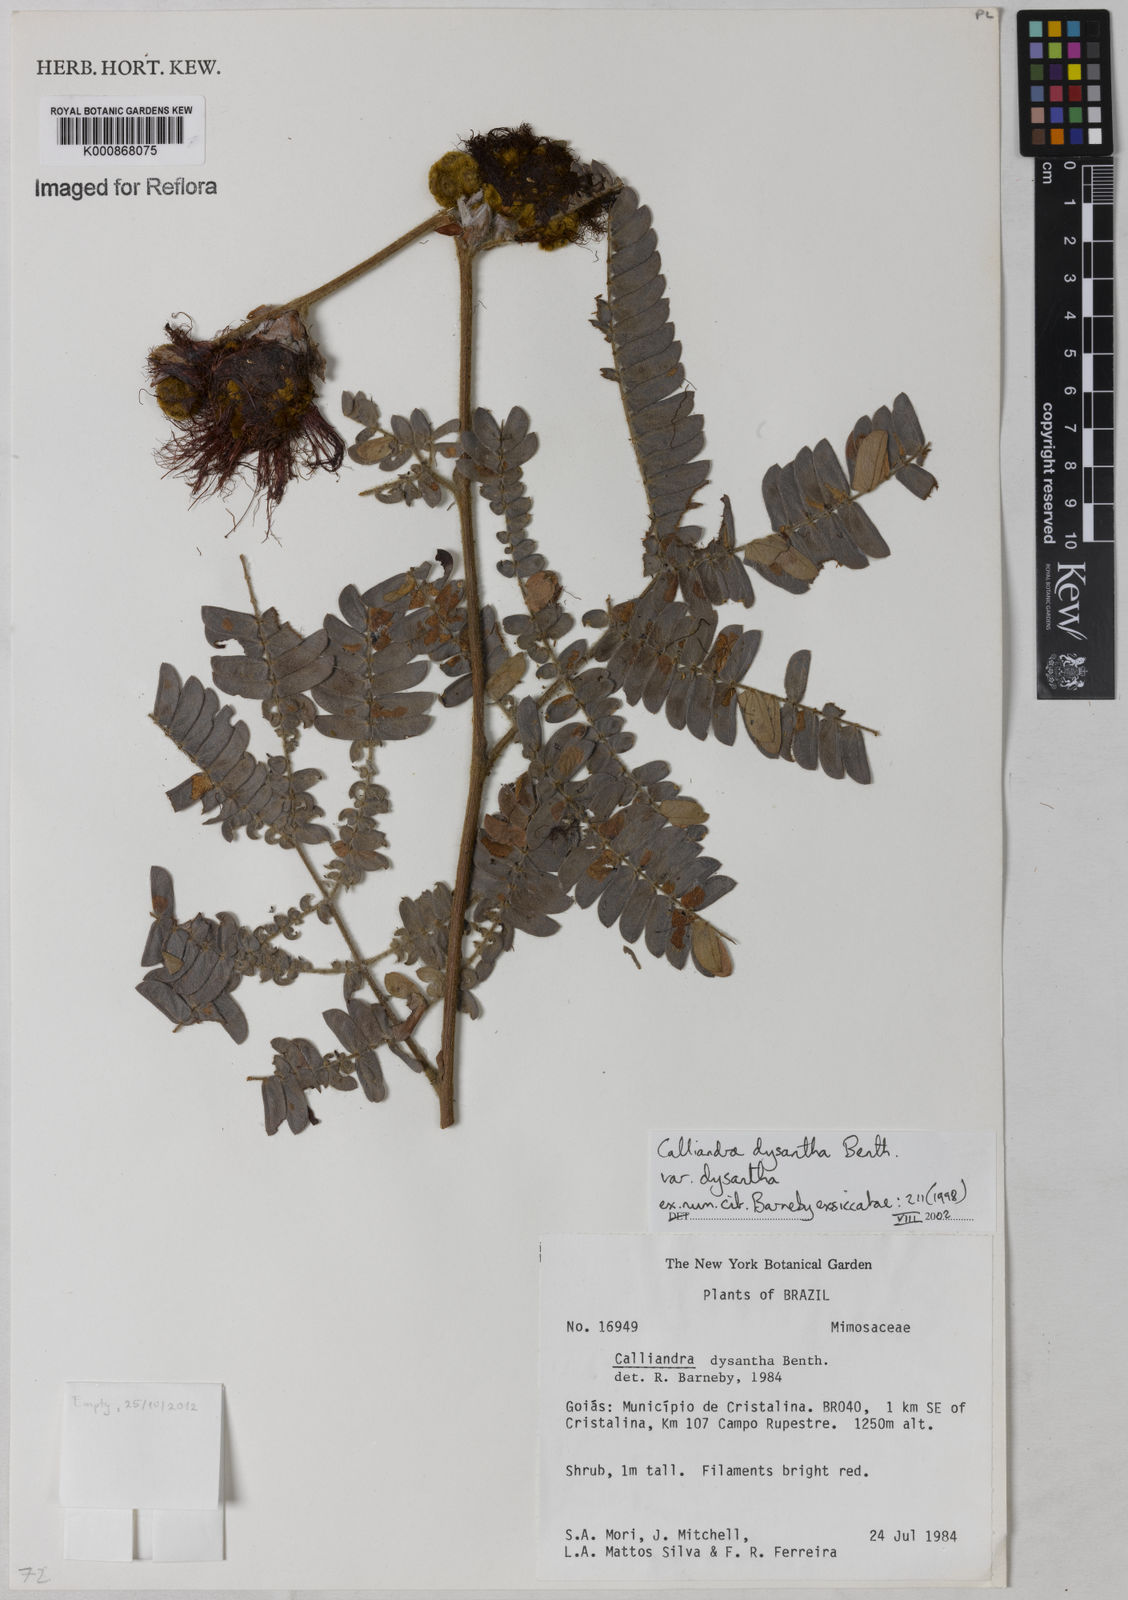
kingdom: Plantae
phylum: Tracheophyta
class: Magnoliopsida
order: Fabales
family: Fabaceae
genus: Calliandra
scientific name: Calliandra dysantha
